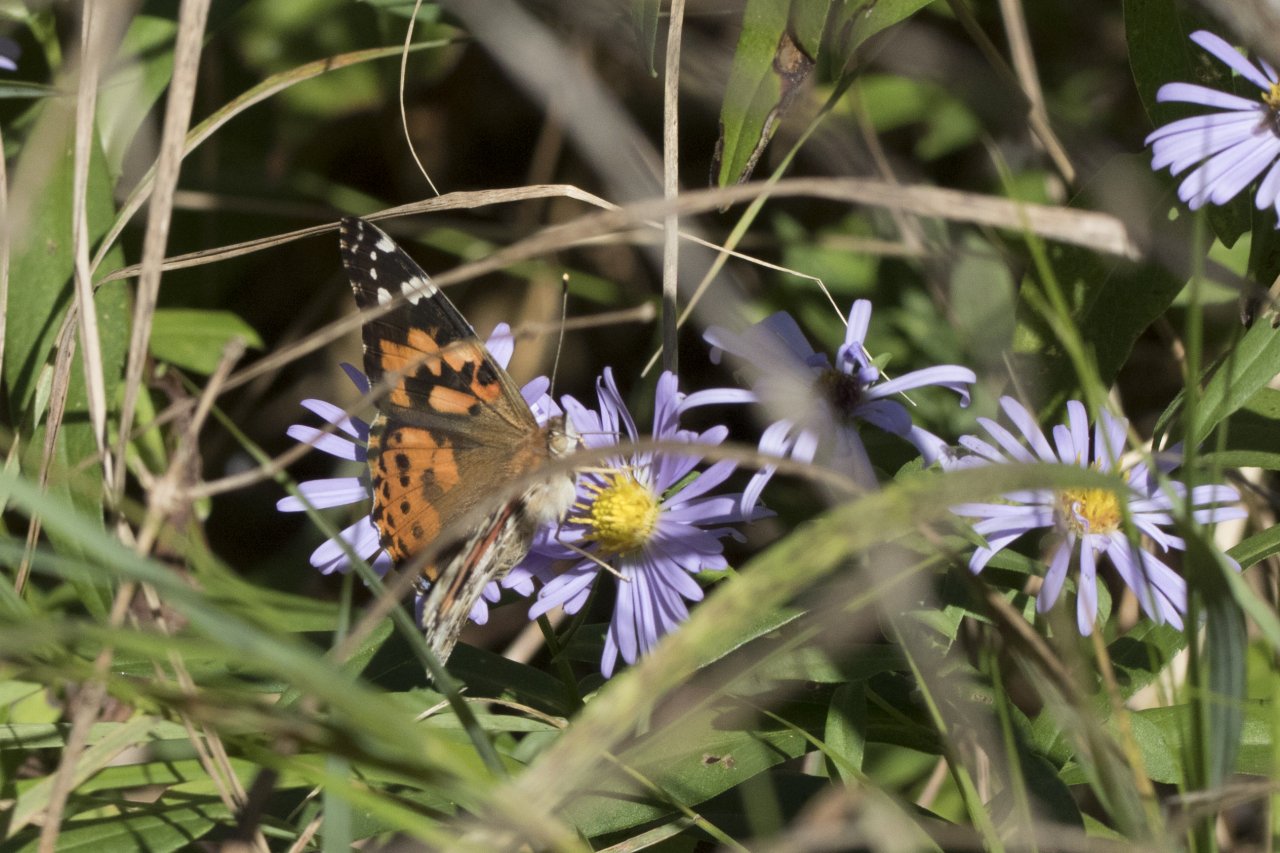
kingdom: Animalia
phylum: Arthropoda
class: Insecta
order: Lepidoptera
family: Nymphalidae
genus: Vanessa
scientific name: Vanessa cardui
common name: Painted Lady
